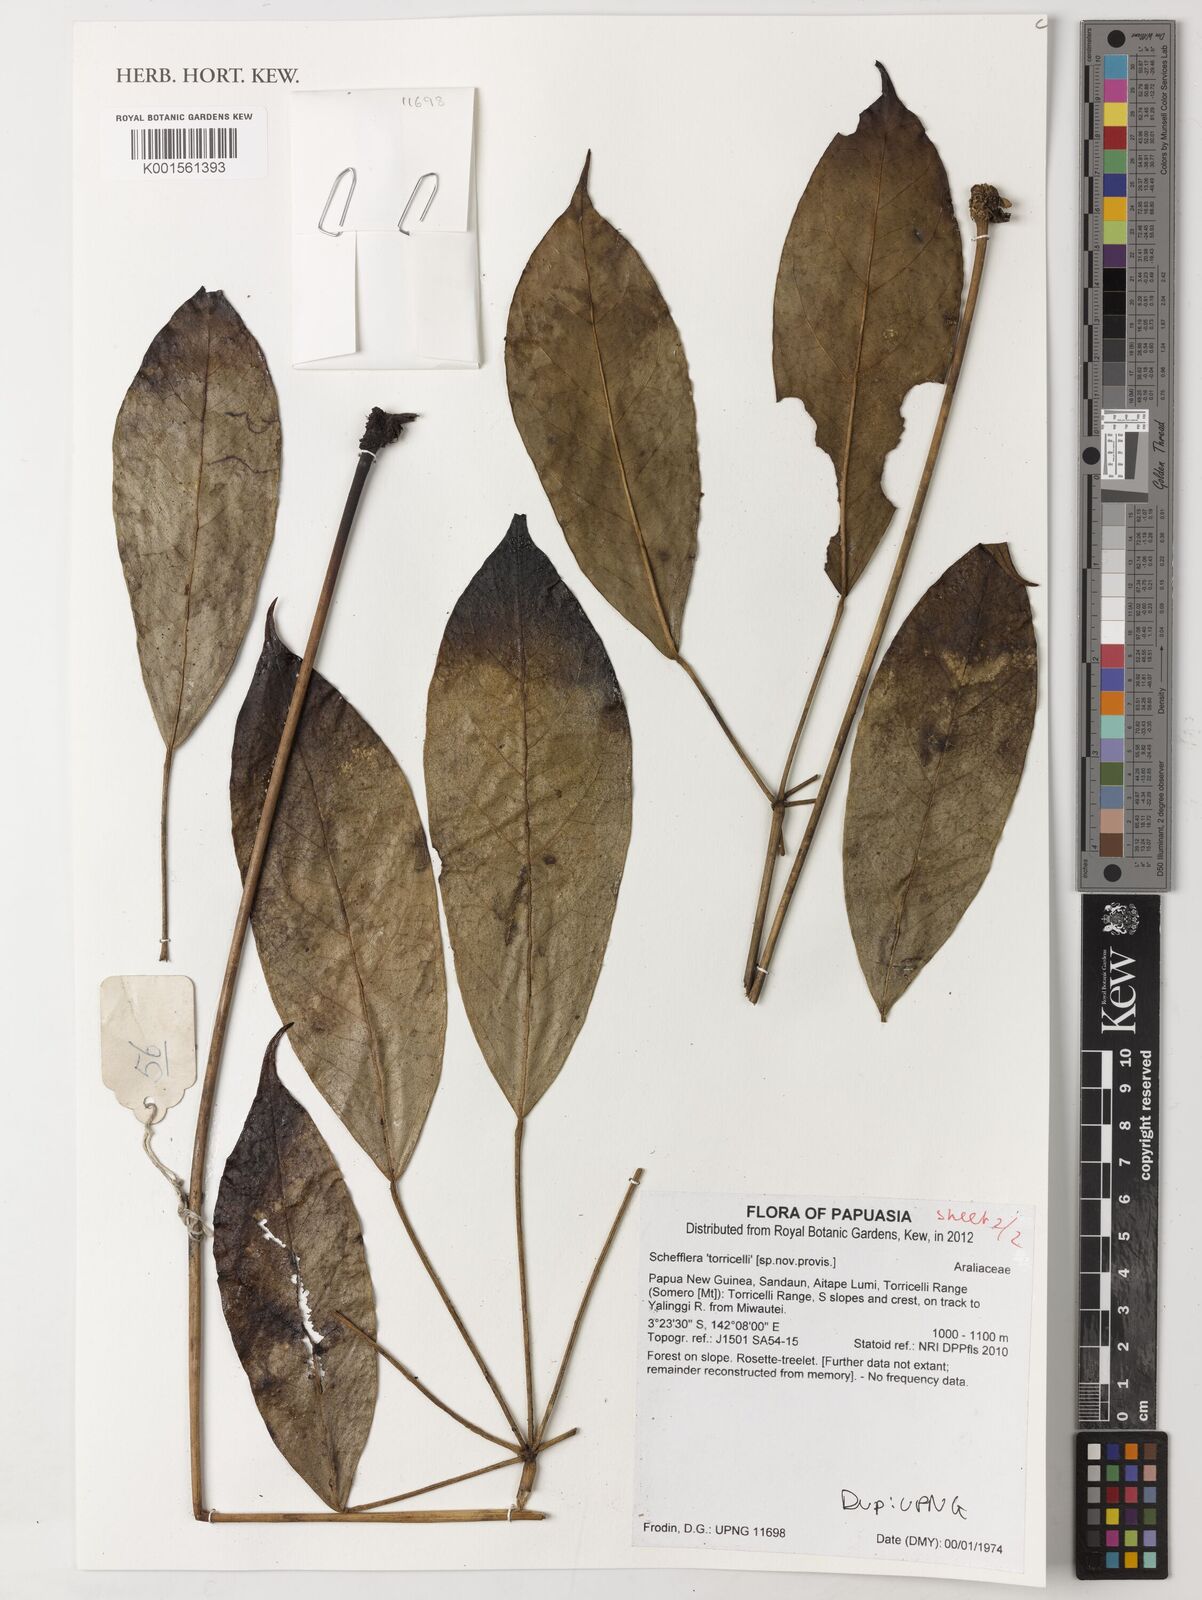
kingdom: Plantae
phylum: Tracheophyta
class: Magnoliopsida
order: Apiales
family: Araliaceae
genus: Schefflera
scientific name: Schefflera
